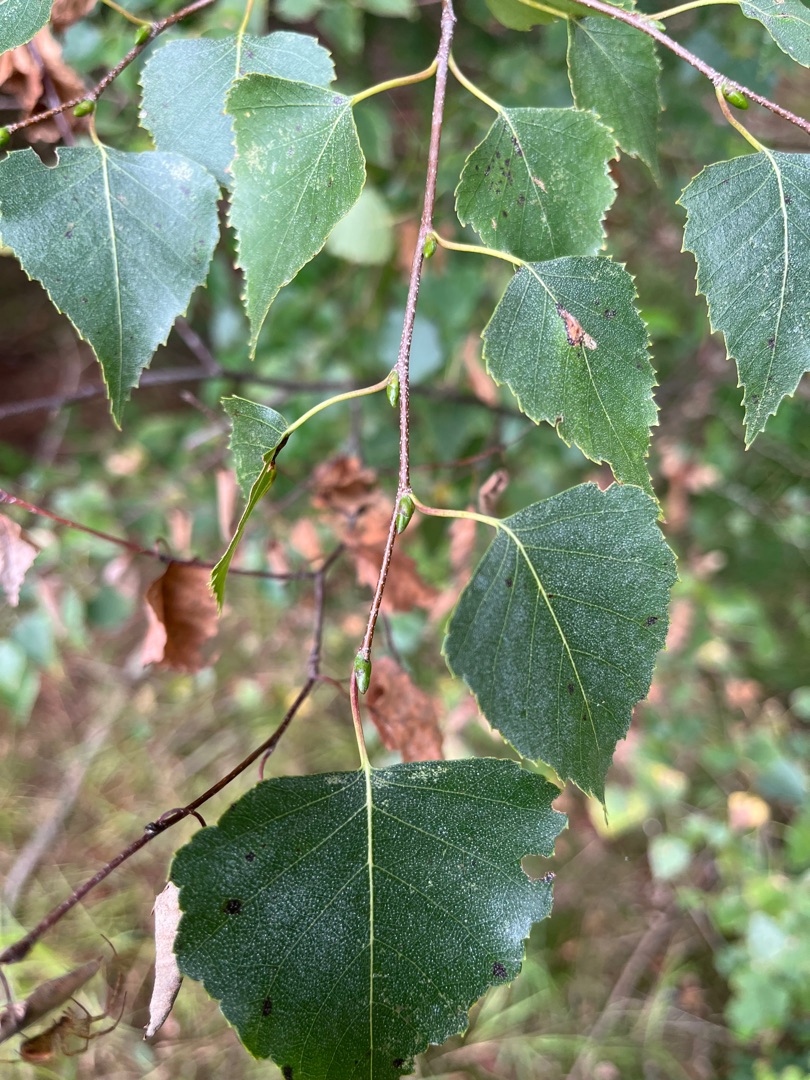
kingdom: Plantae
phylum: Tracheophyta
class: Magnoliopsida
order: Fagales
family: Betulaceae
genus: Betula
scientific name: Betula pendula
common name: Vorte-birk
